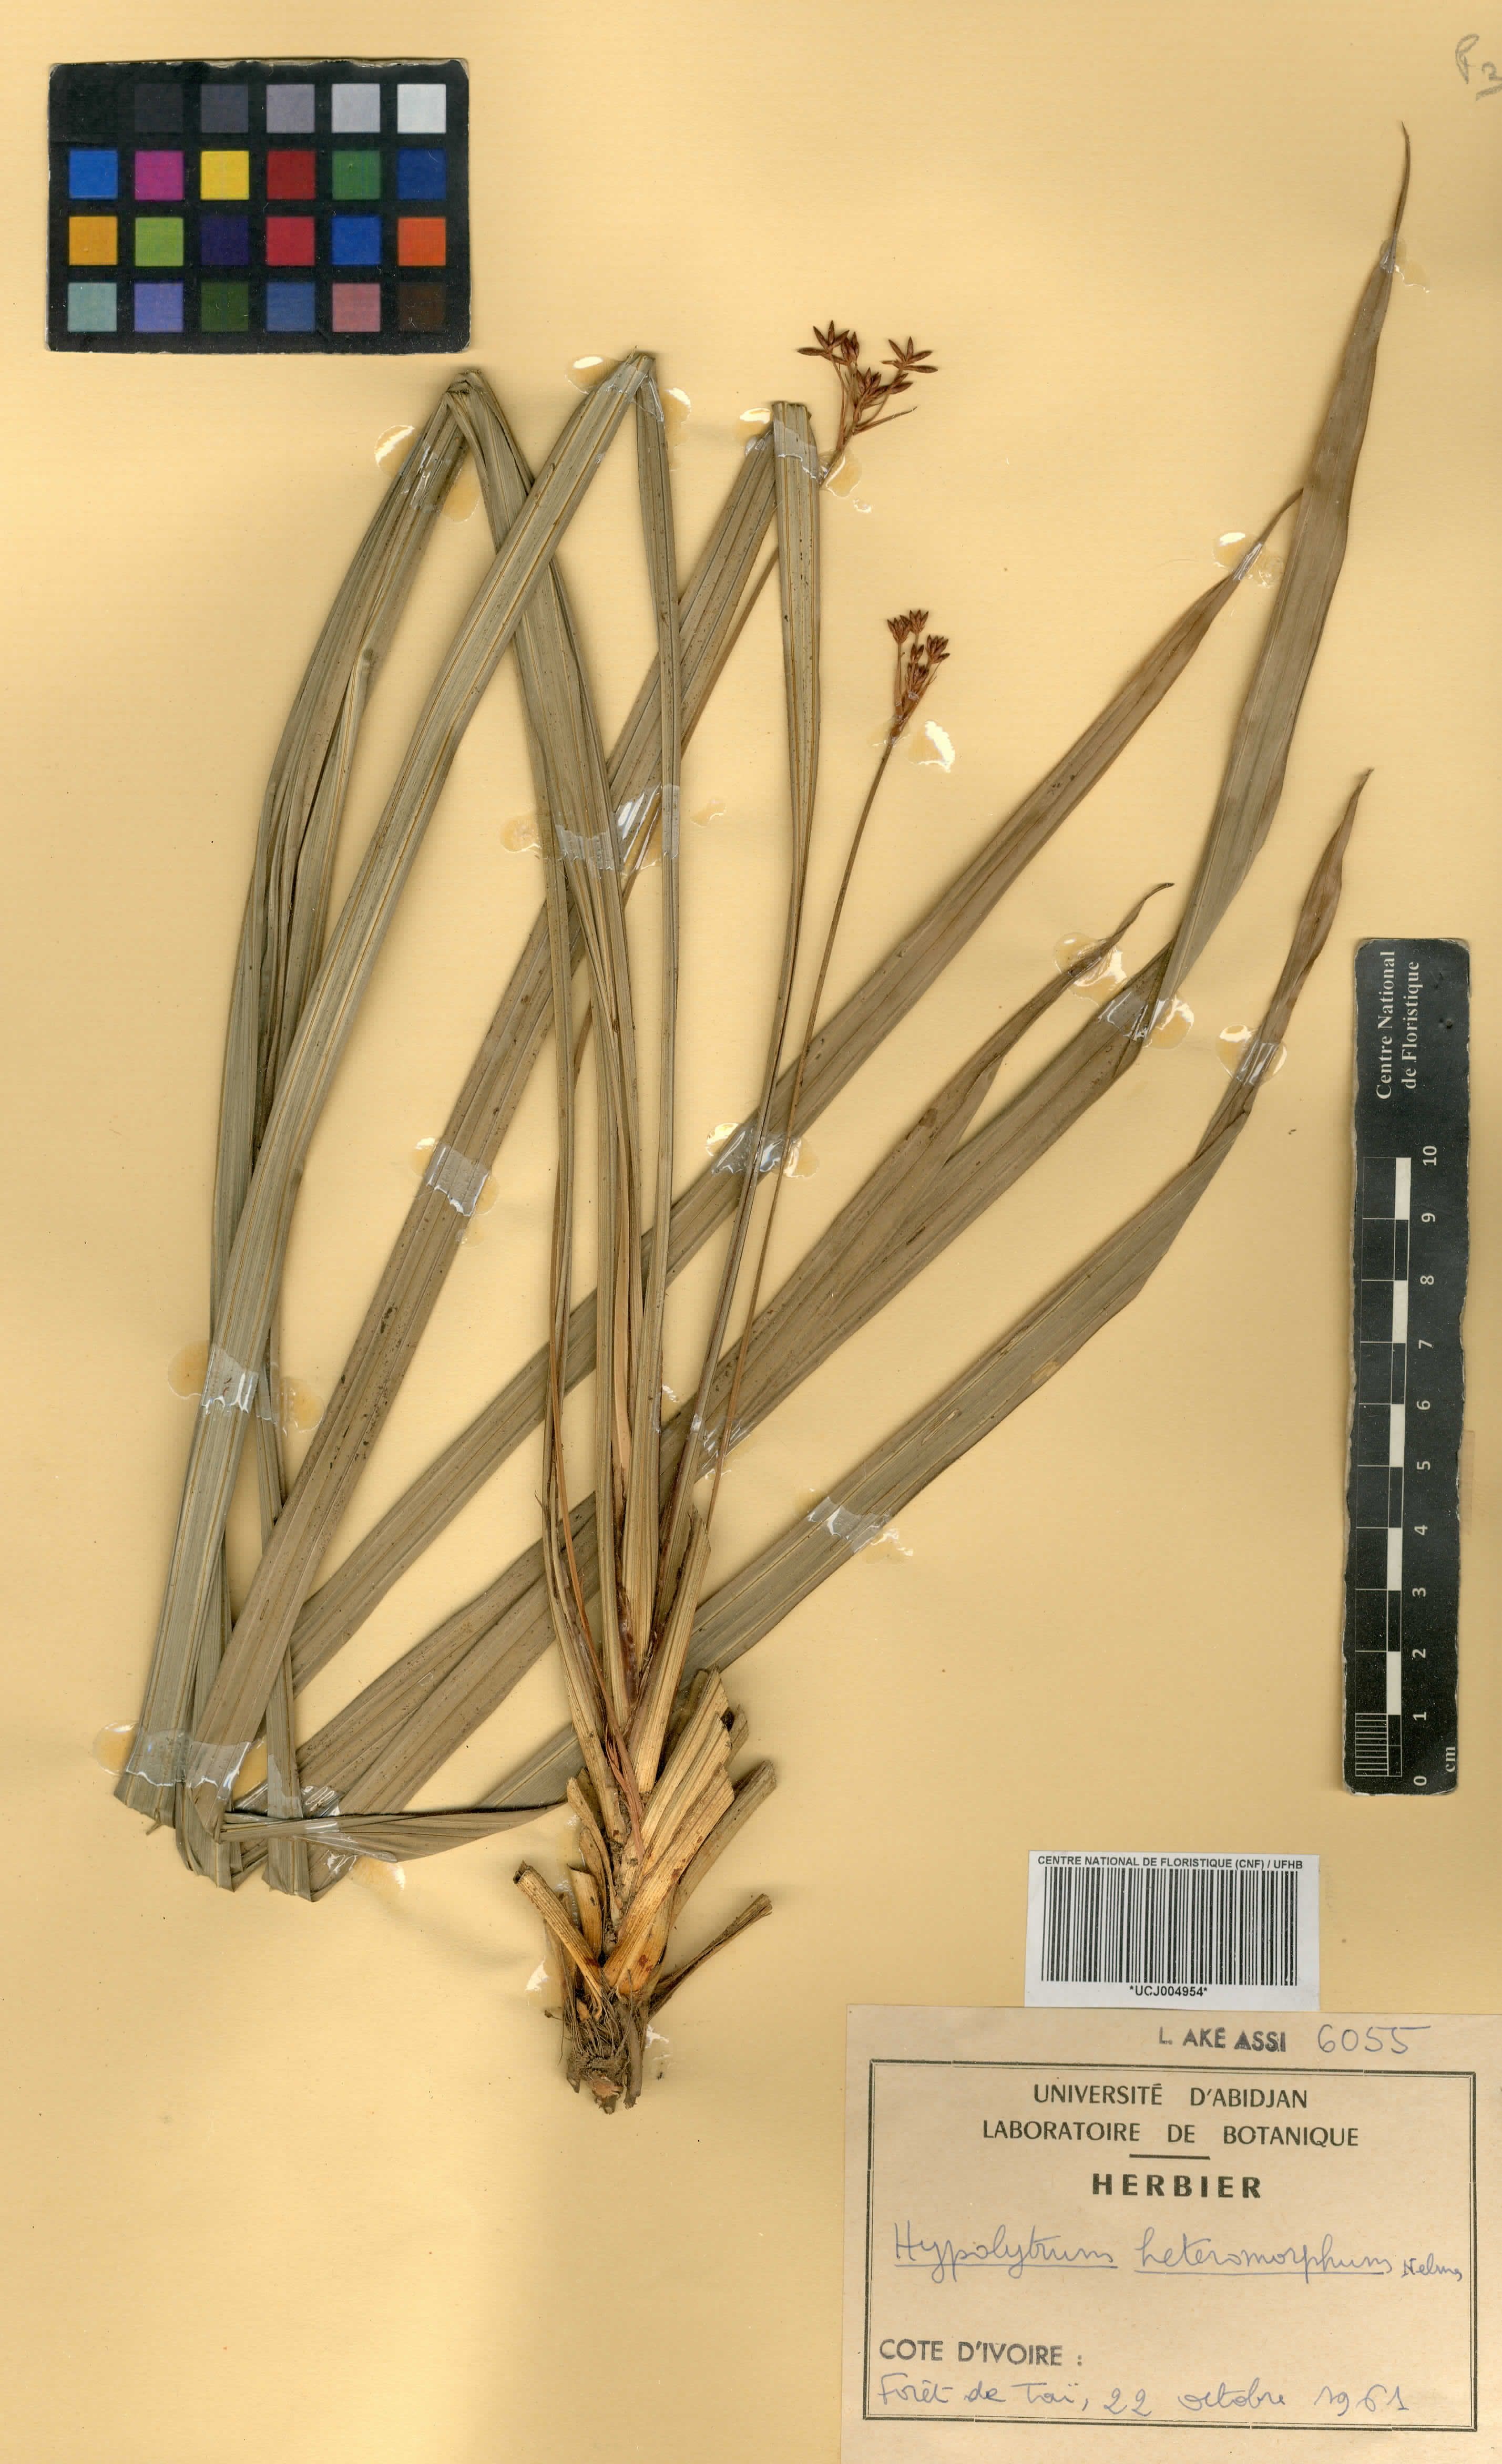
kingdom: Plantae
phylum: Tracheophyta
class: Liliopsida
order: Poales
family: Cyperaceae
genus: Hypolytrum
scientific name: Hypolytrum heteromorphum
